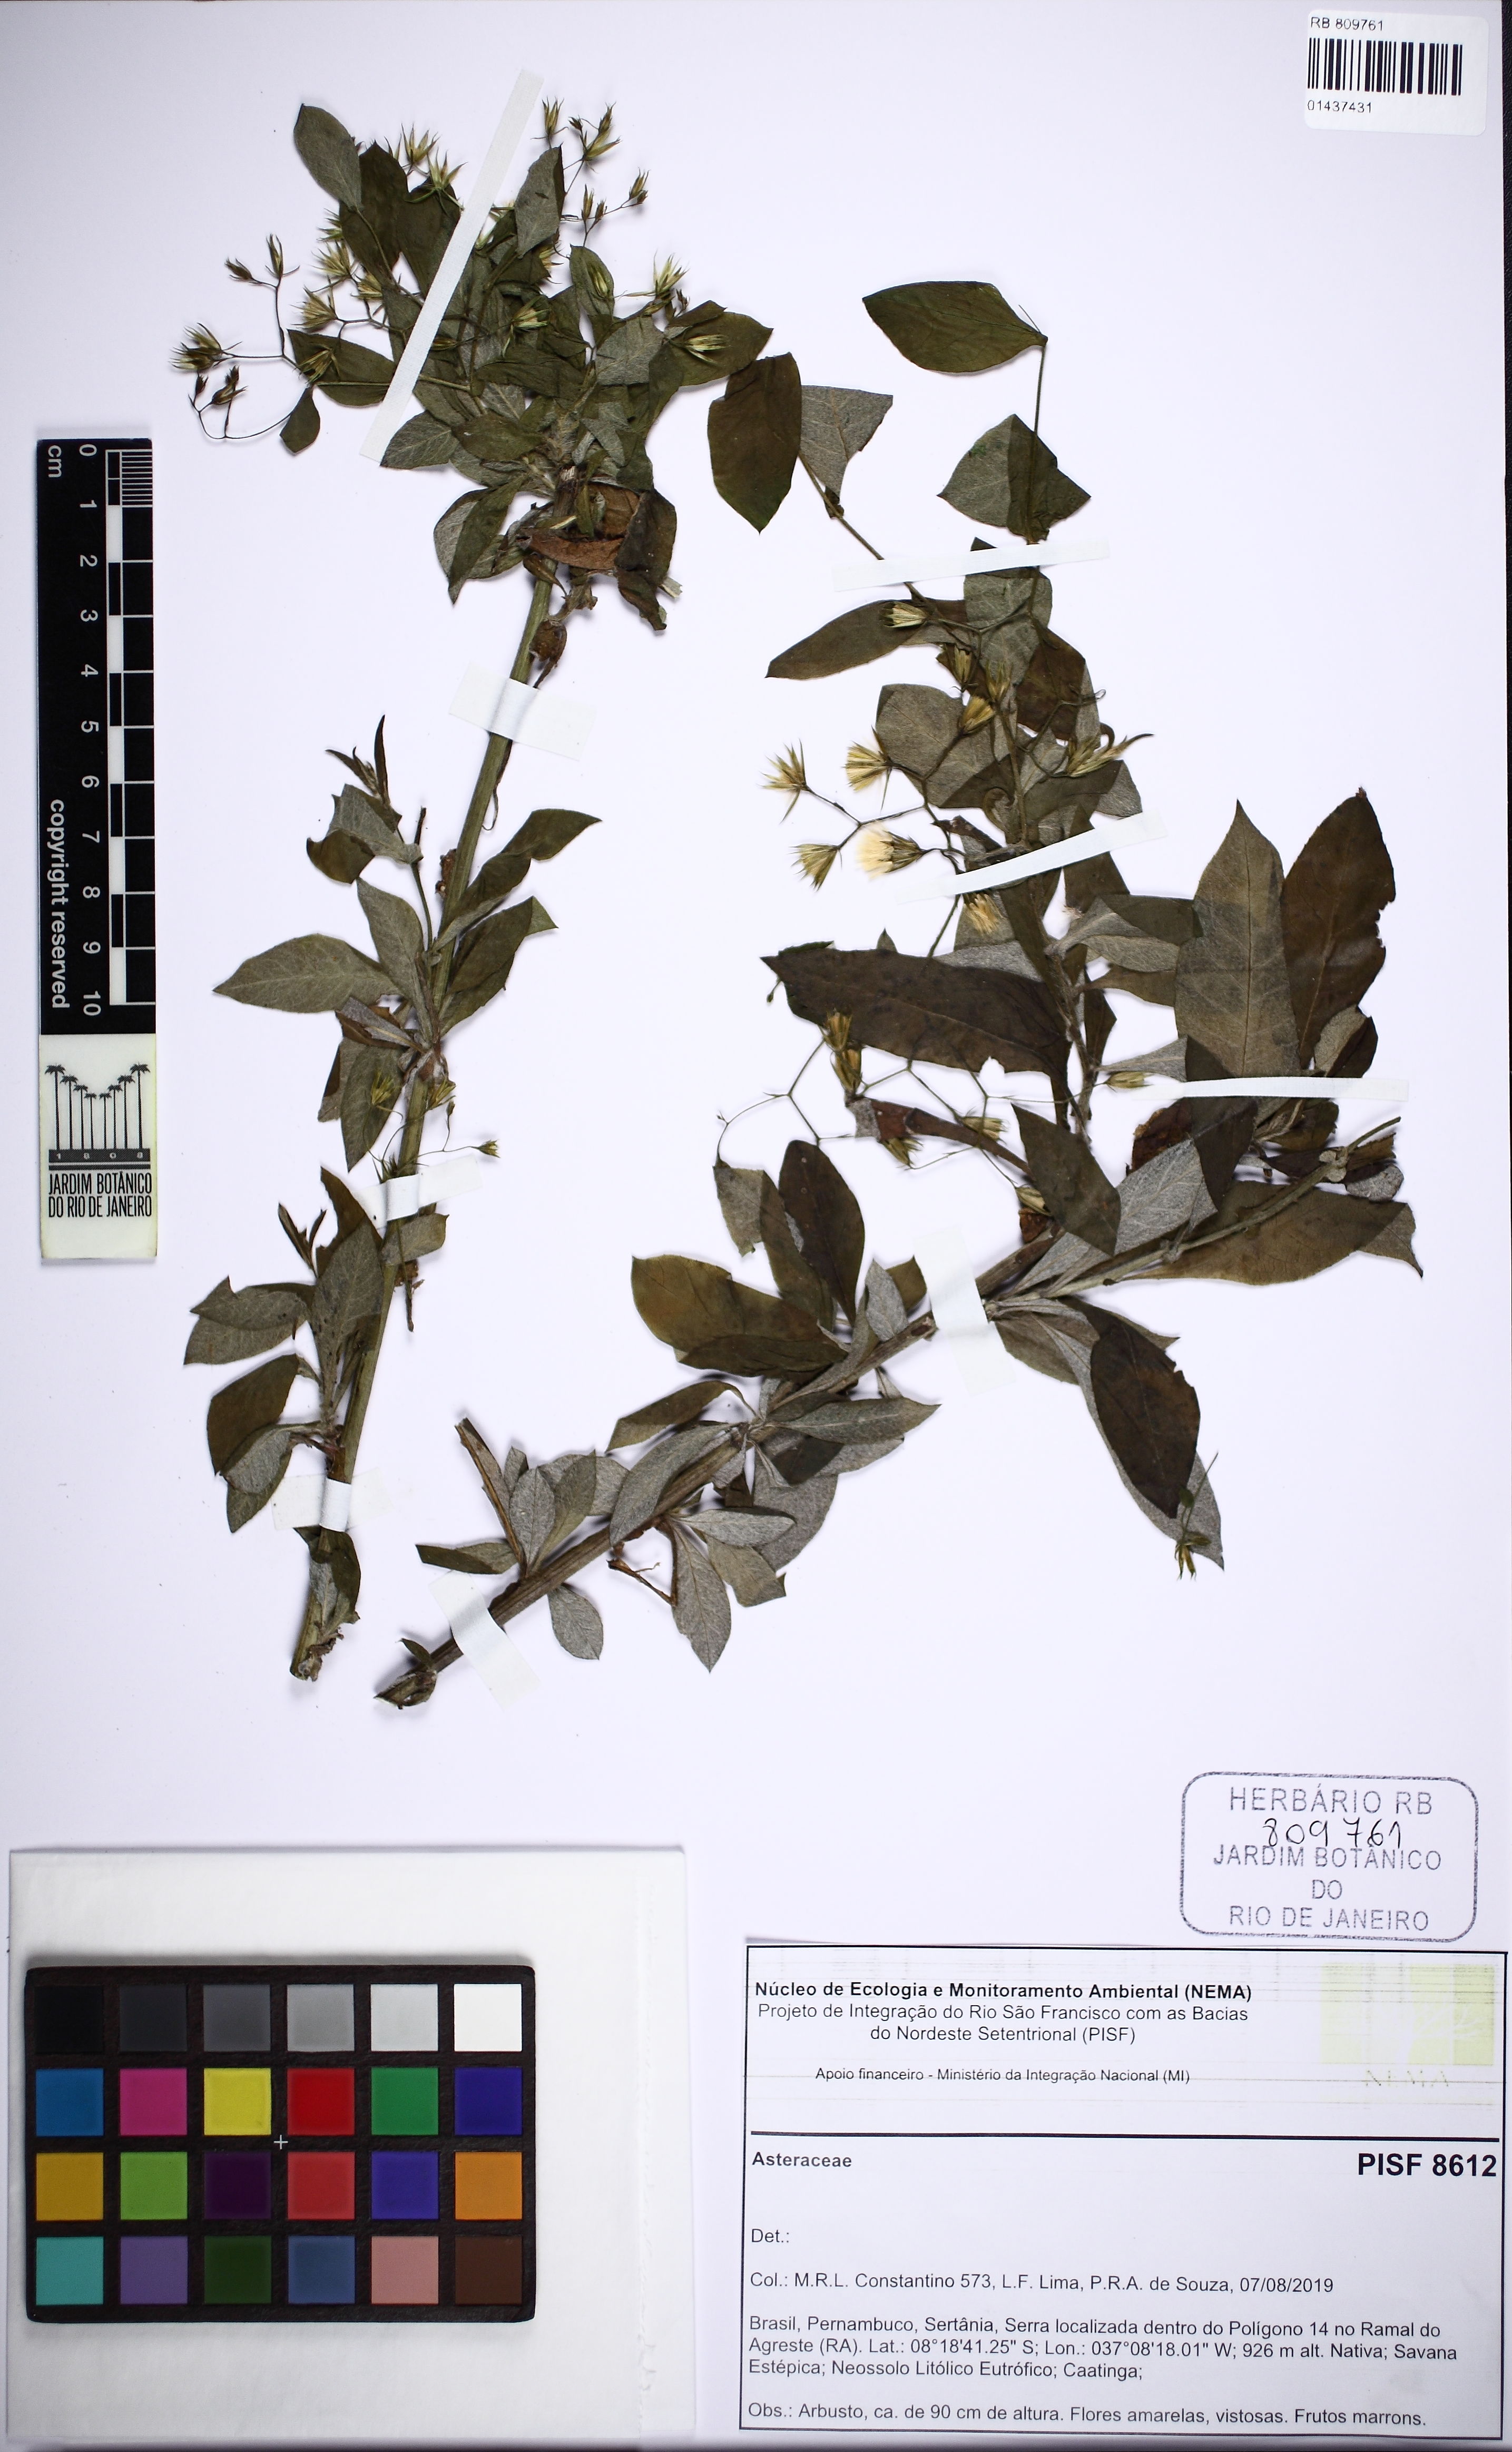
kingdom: Plantae
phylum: Tracheophyta
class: Magnoliopsida
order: Asterales
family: Asteraceae
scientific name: Asteraceae
